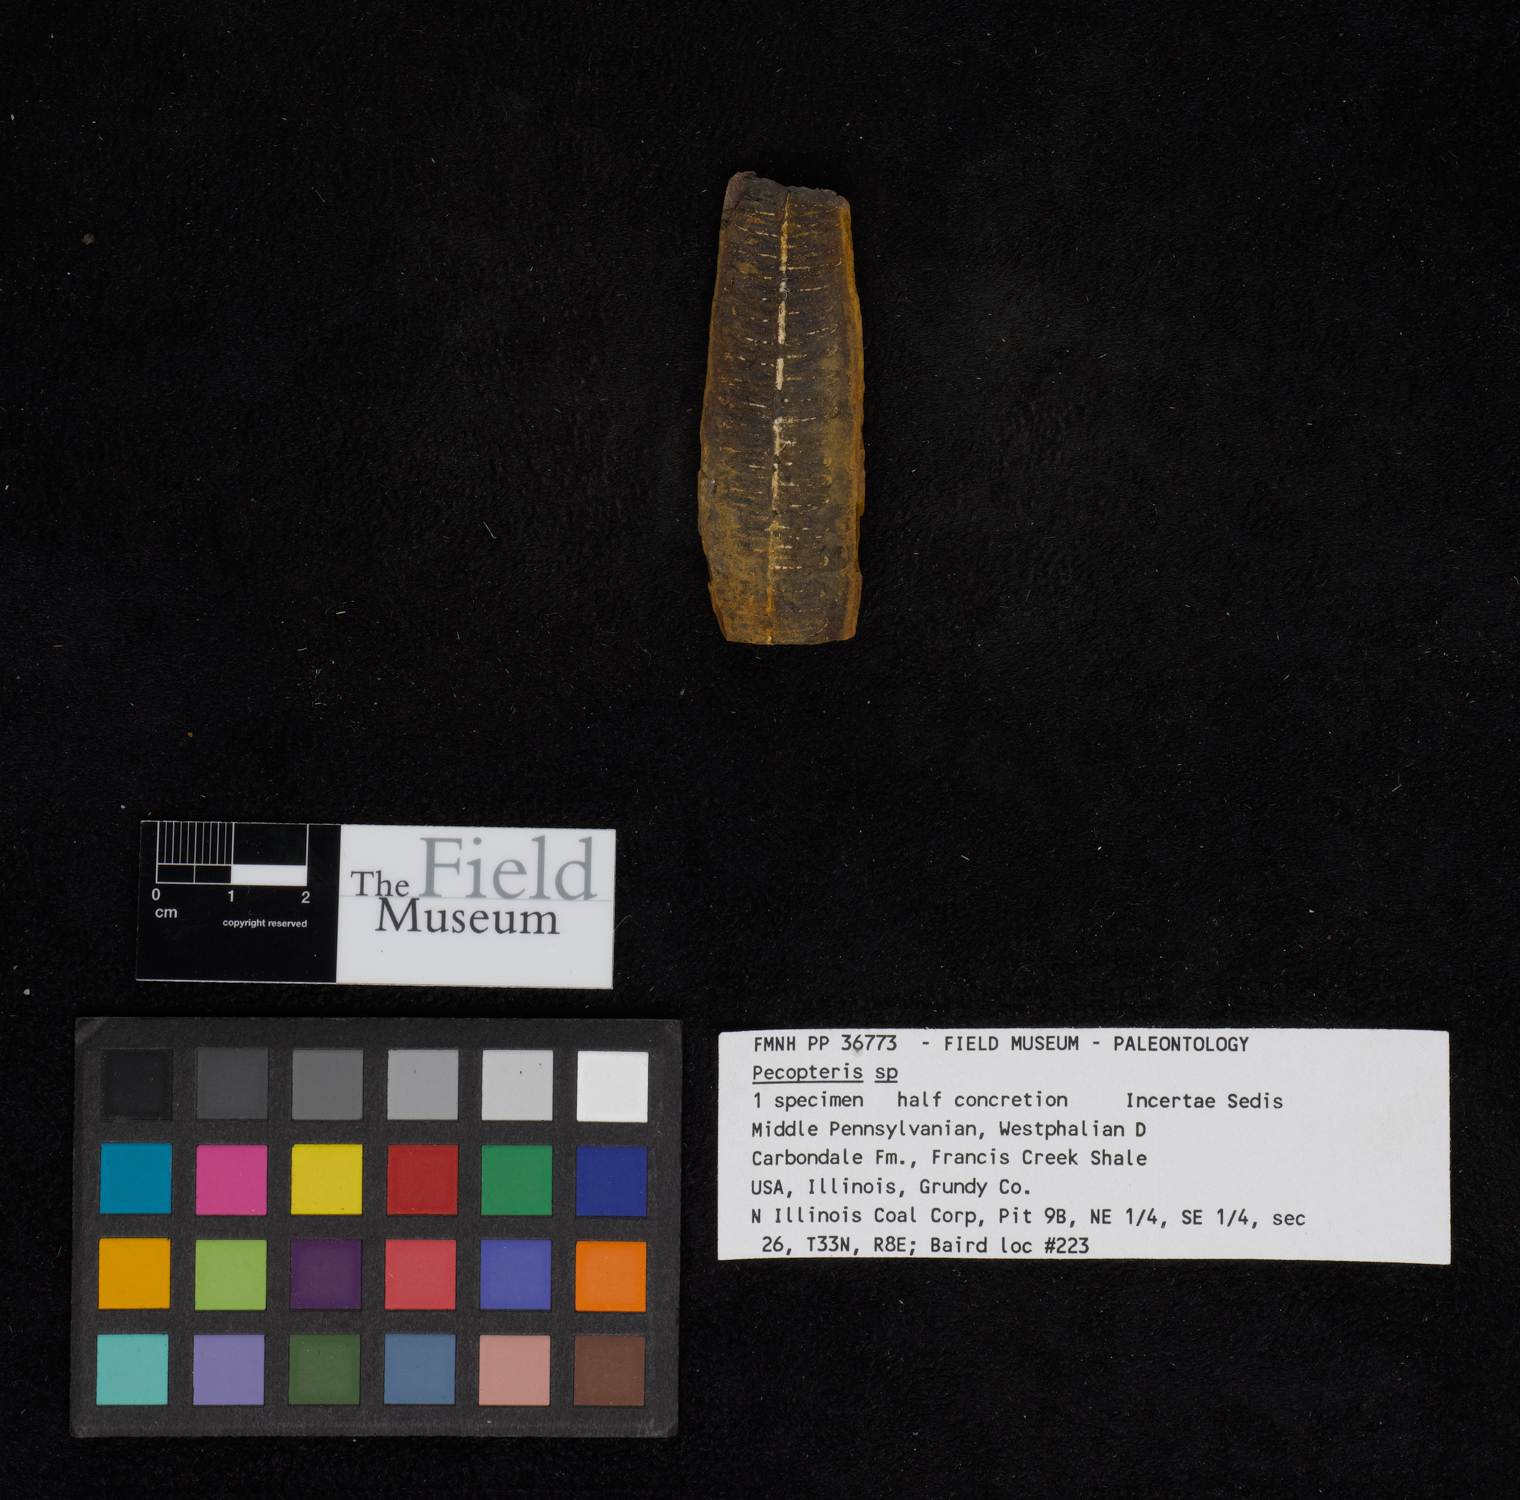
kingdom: Plantae
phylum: Tracheophyta
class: Polypodiopsida
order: Marattiales
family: Asterothecaceae
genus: Pecopteris
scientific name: Pecopteris
